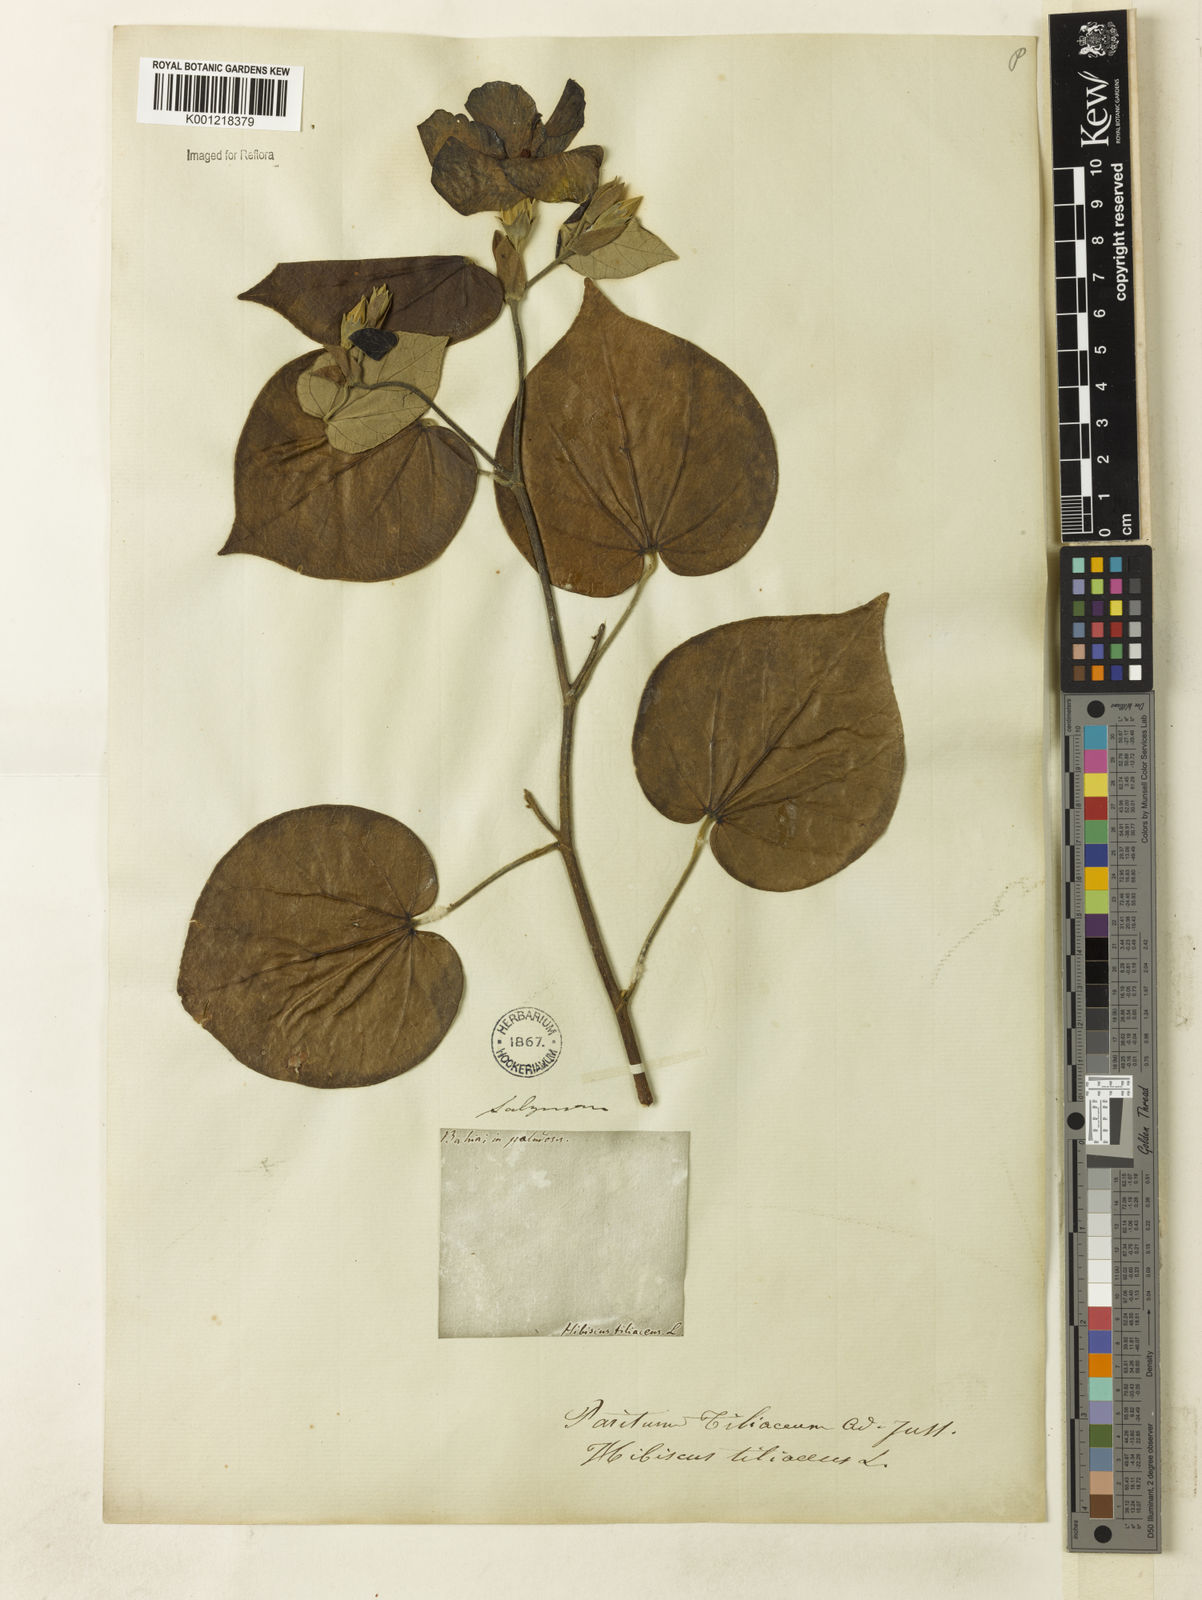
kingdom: Plantae
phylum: Tracheophyta
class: Magnoliopsida
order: Malvales
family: Malvaceae
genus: Hibiscus
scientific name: Hibiscus
